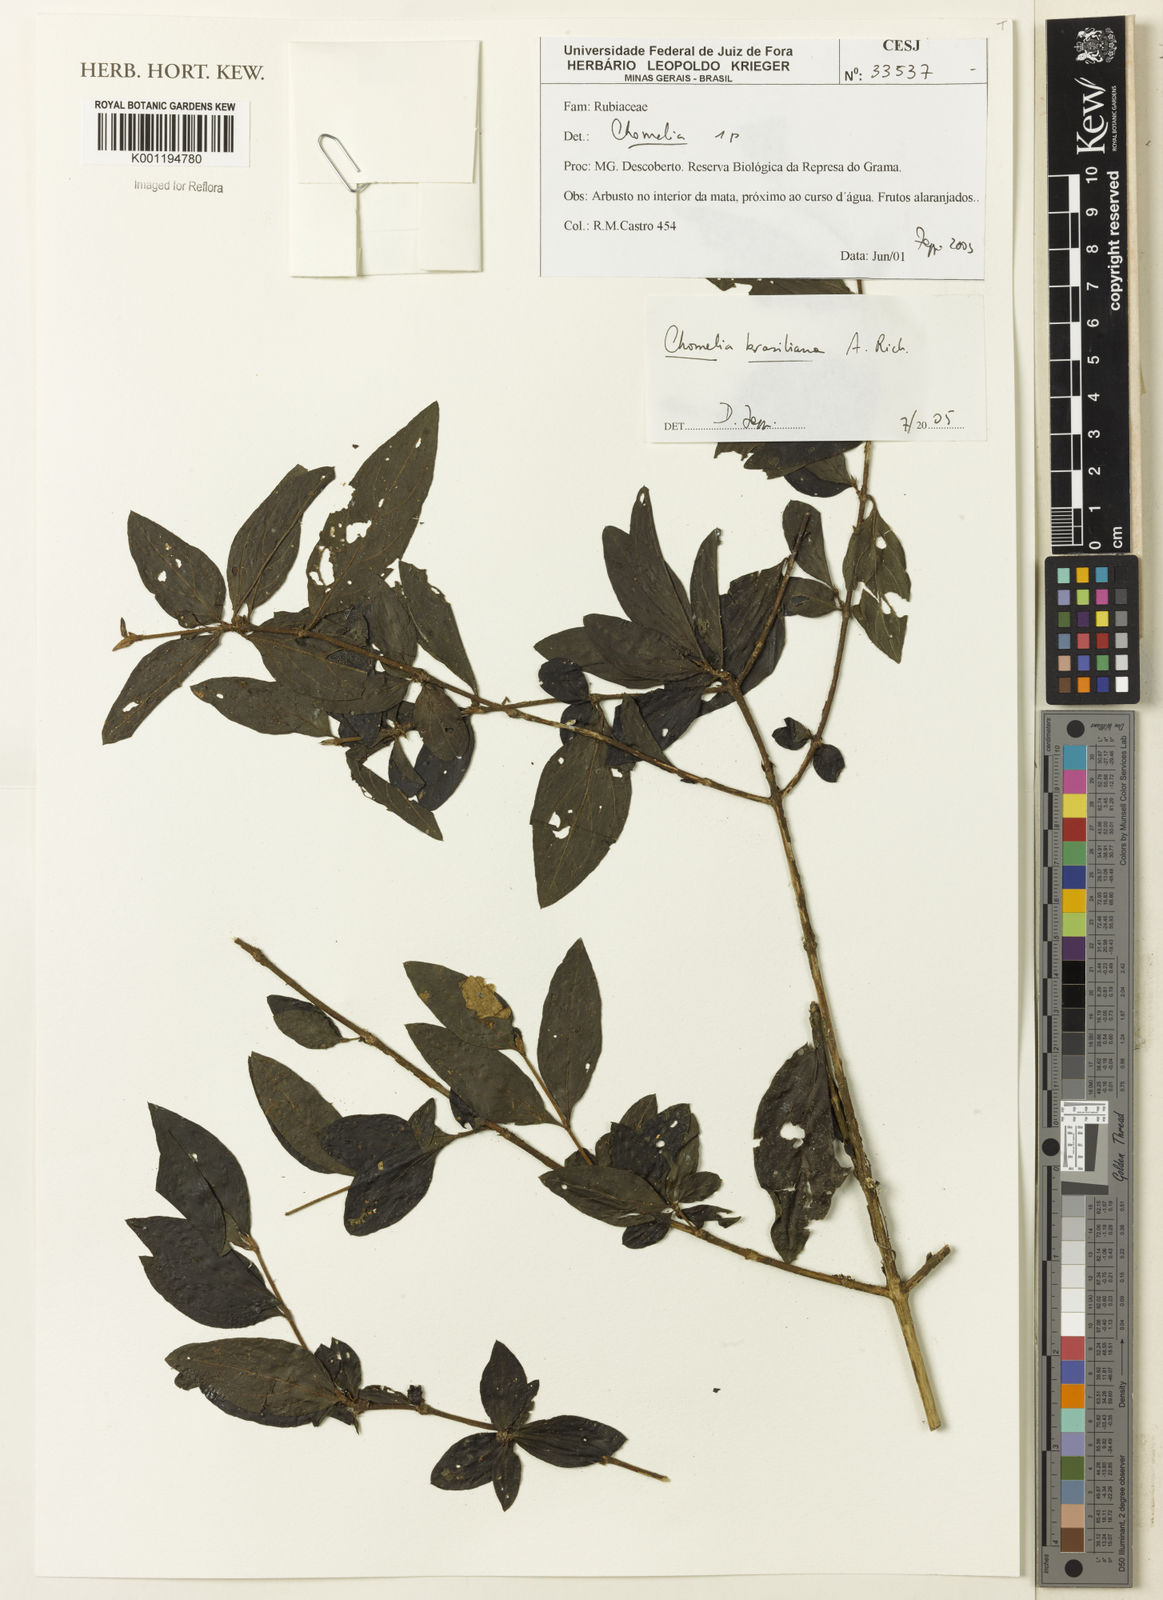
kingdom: Plantae
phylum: Tracheophyta
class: Magnoliopsida
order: Gentianales
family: Rubiaceae
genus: Chomelia
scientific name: Chomelia brasiliana
